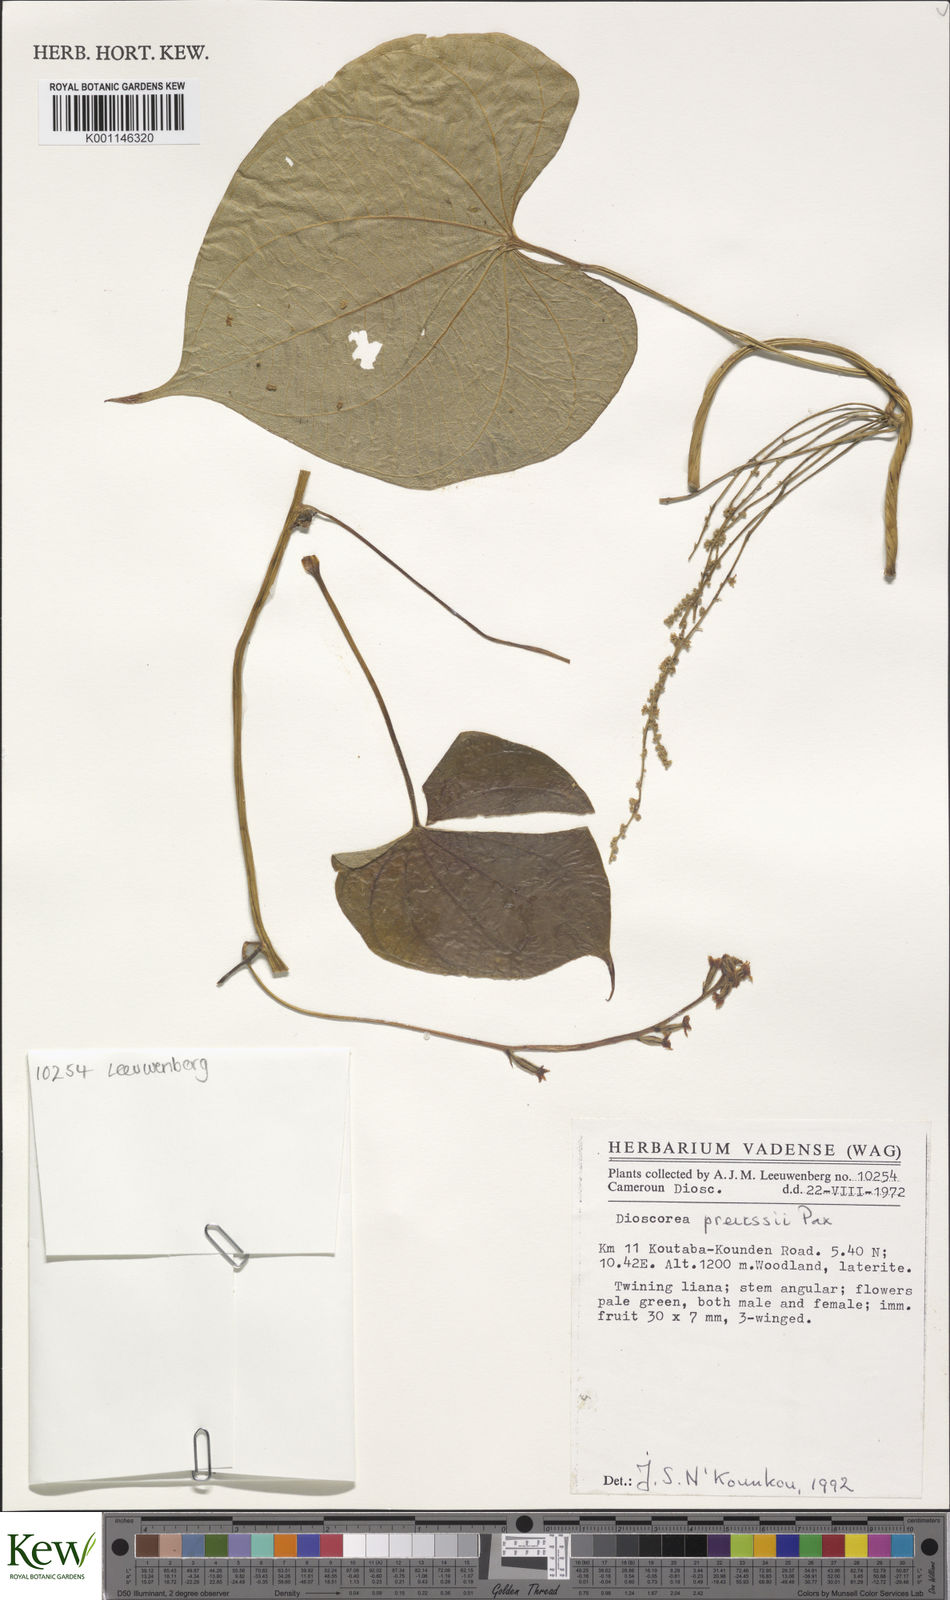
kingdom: Plantae
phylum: Tracheophyta
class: Liliopsida
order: Dioscoreales
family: Dioscoreaceae
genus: Dioscorea
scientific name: Dioscorea preussii
